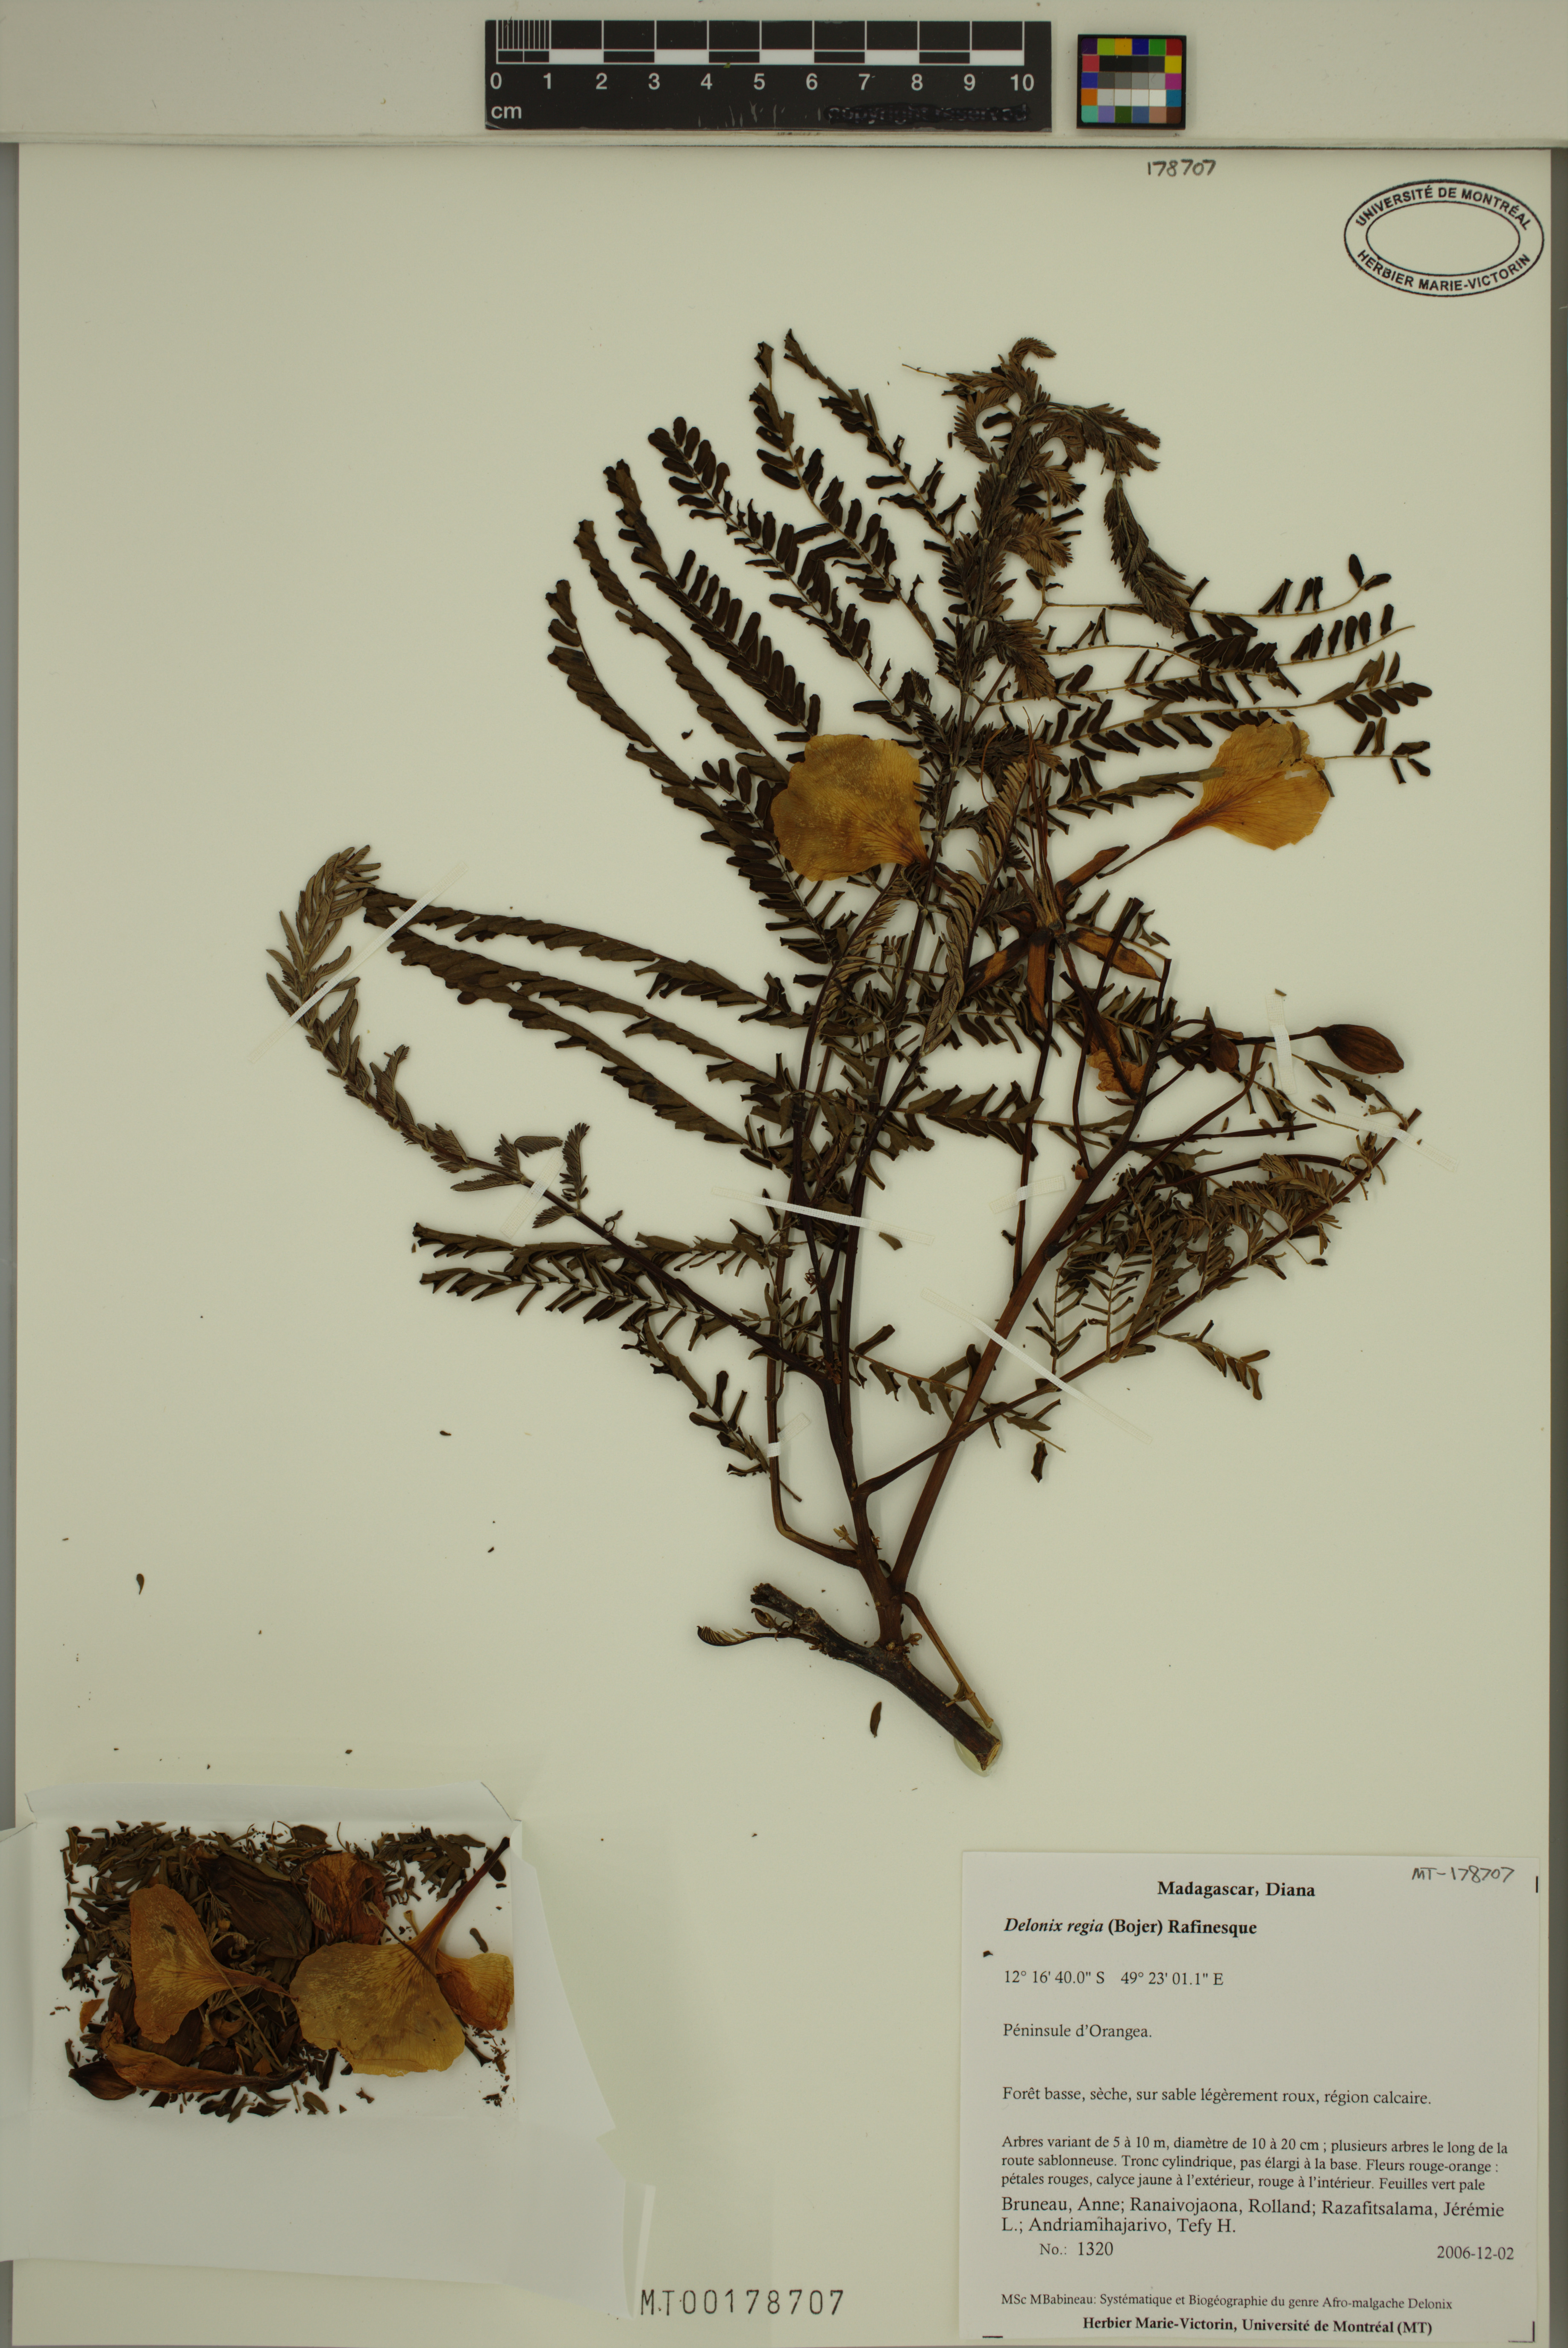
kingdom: Plantae
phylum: Tracheophyta
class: Magnoliopsida
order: Fabales
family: Fabaceae
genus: Delonix
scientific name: Delonix regia
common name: Royal poinciana
